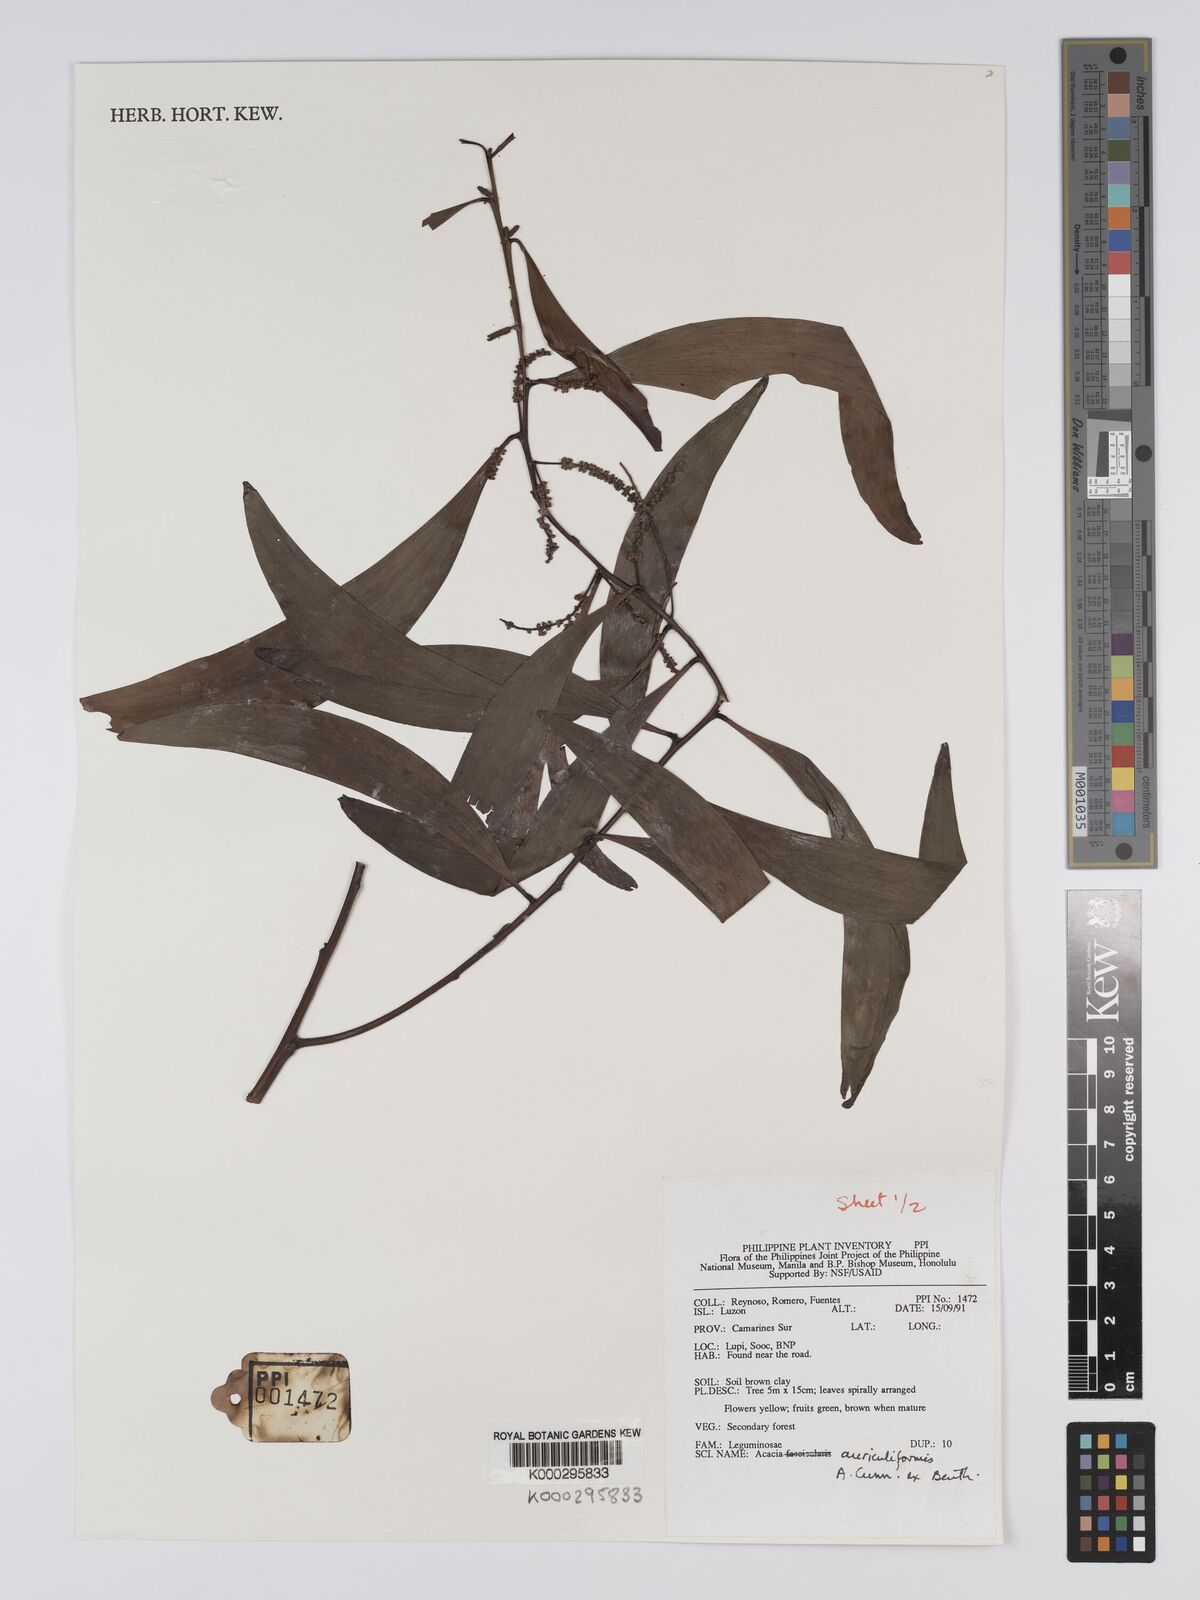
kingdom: Plantae
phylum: Tracheophyta
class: Magnoliopsida
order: Fabales
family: Fabaceae
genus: Acacia
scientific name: Acacia auriculiformis
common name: Earleaf acacia
